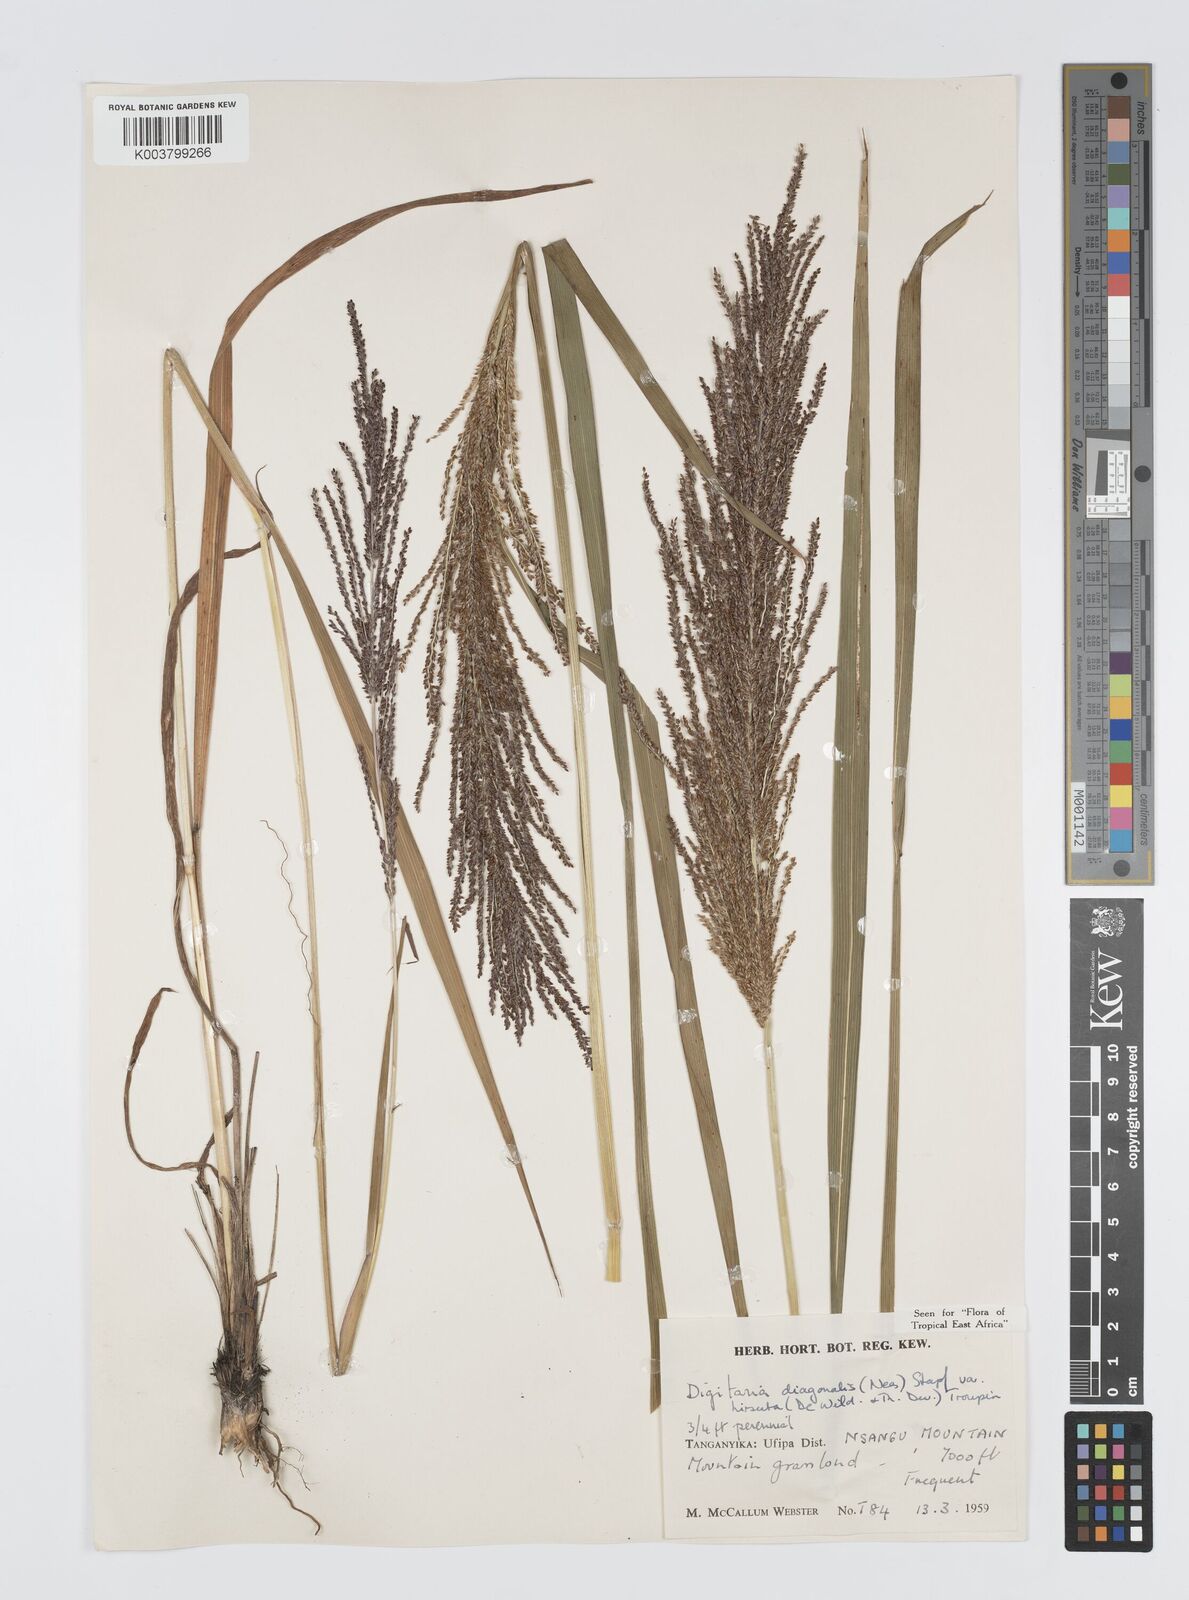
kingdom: Plantae
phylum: Tracheophyta
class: Liliopsida
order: Poales
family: Poaceae
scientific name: Poaceae
